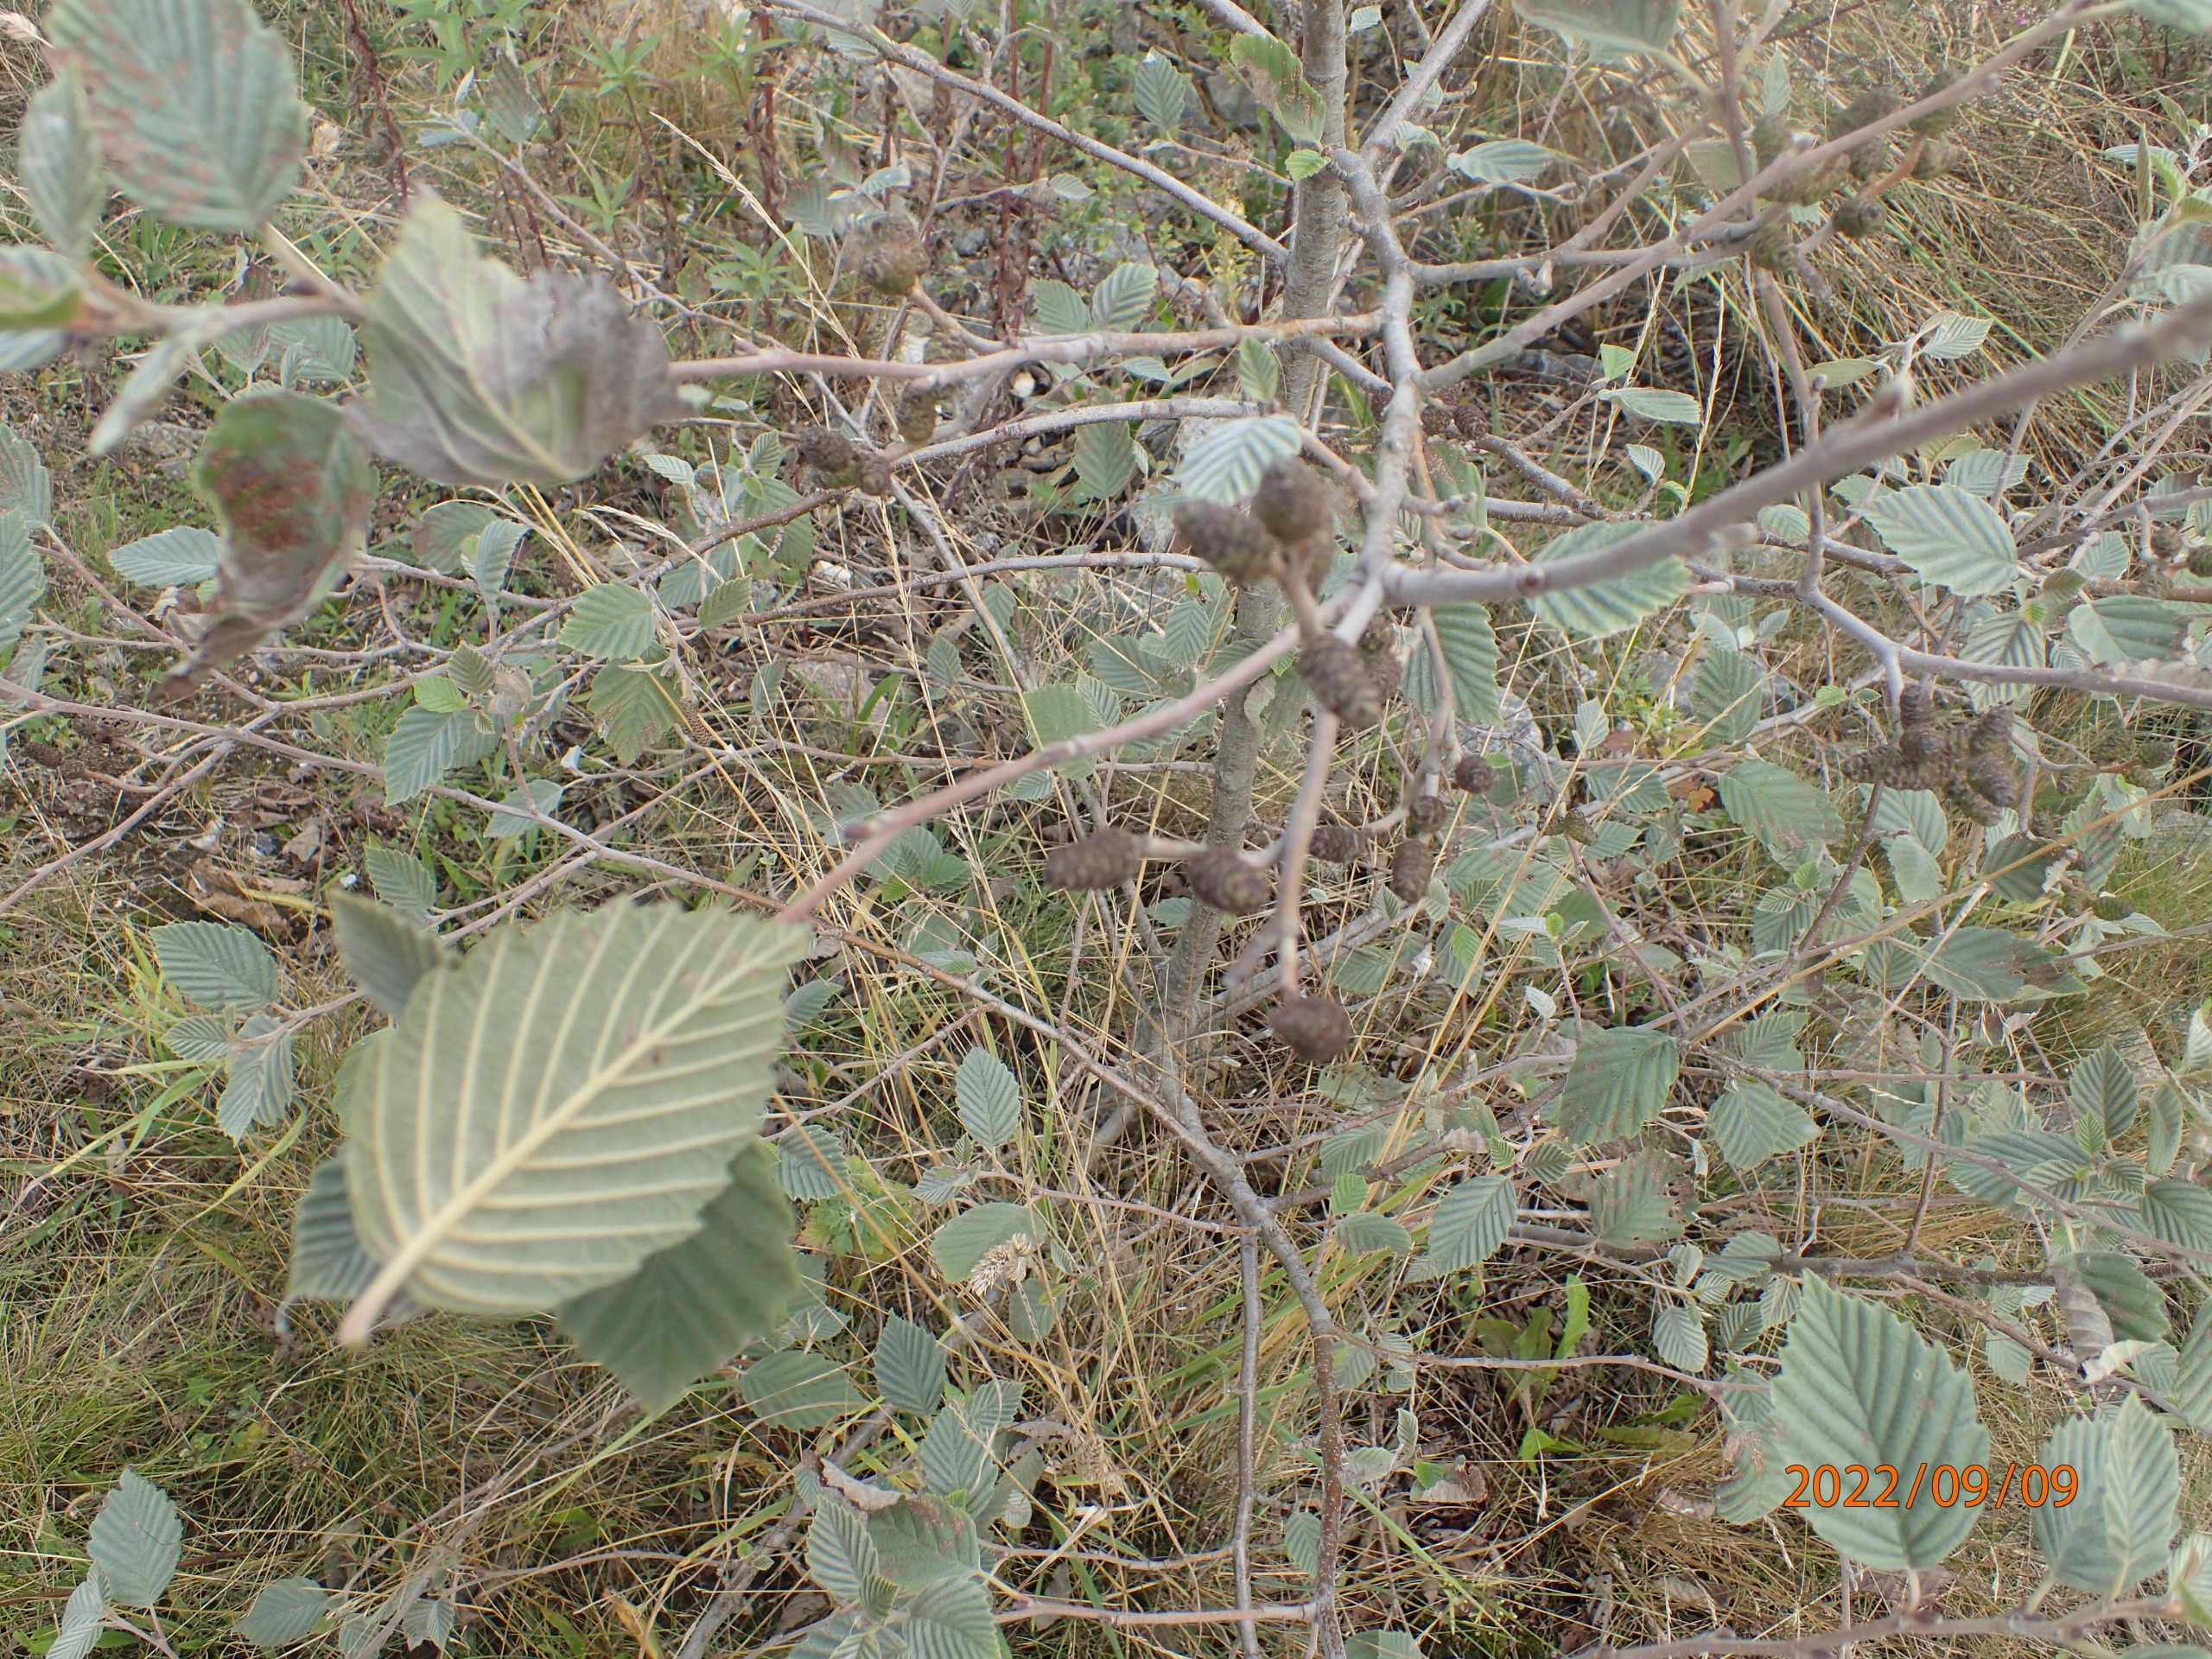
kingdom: Plantae
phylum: Tracheophyta
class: Magnoliopsida
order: Fagales
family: Betulaceae
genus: Alnus
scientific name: Alnus incana
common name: Grå-el/hvid-el
